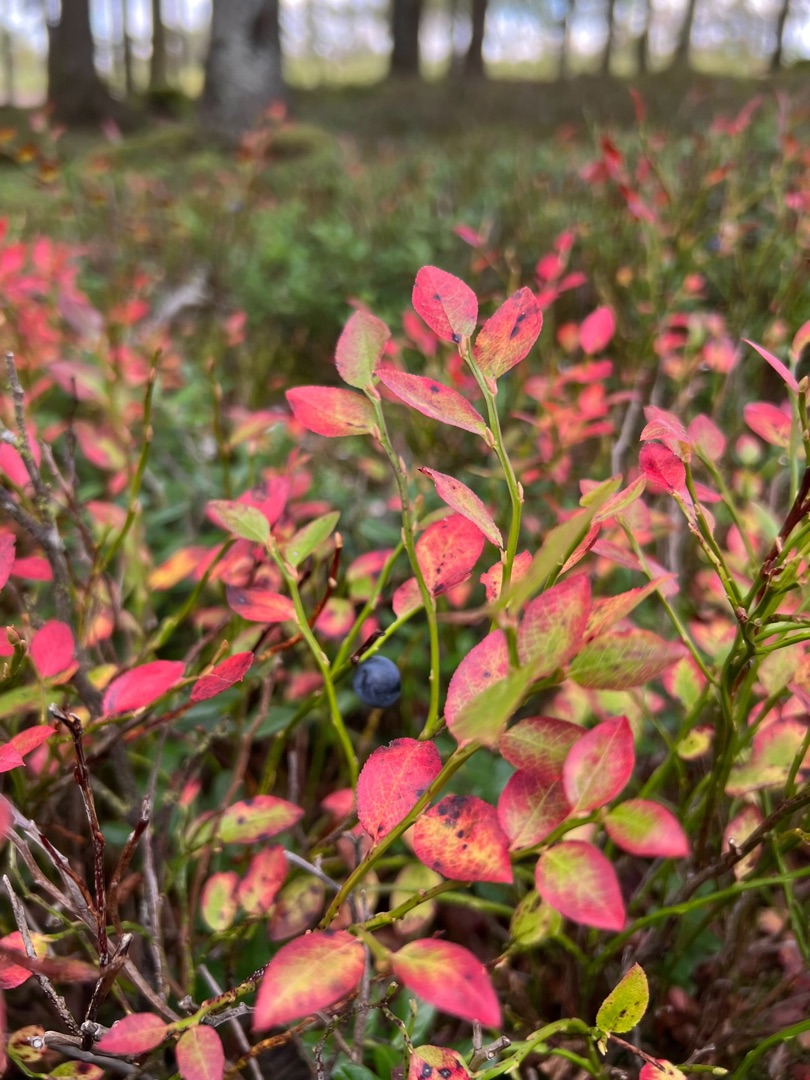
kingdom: Plantae
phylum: Tracheophyta
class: Magnoliopsida
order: Ericales
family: Ericaceae
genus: Vaccinium
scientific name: Vaccinium myrtillus
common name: Blåbær
